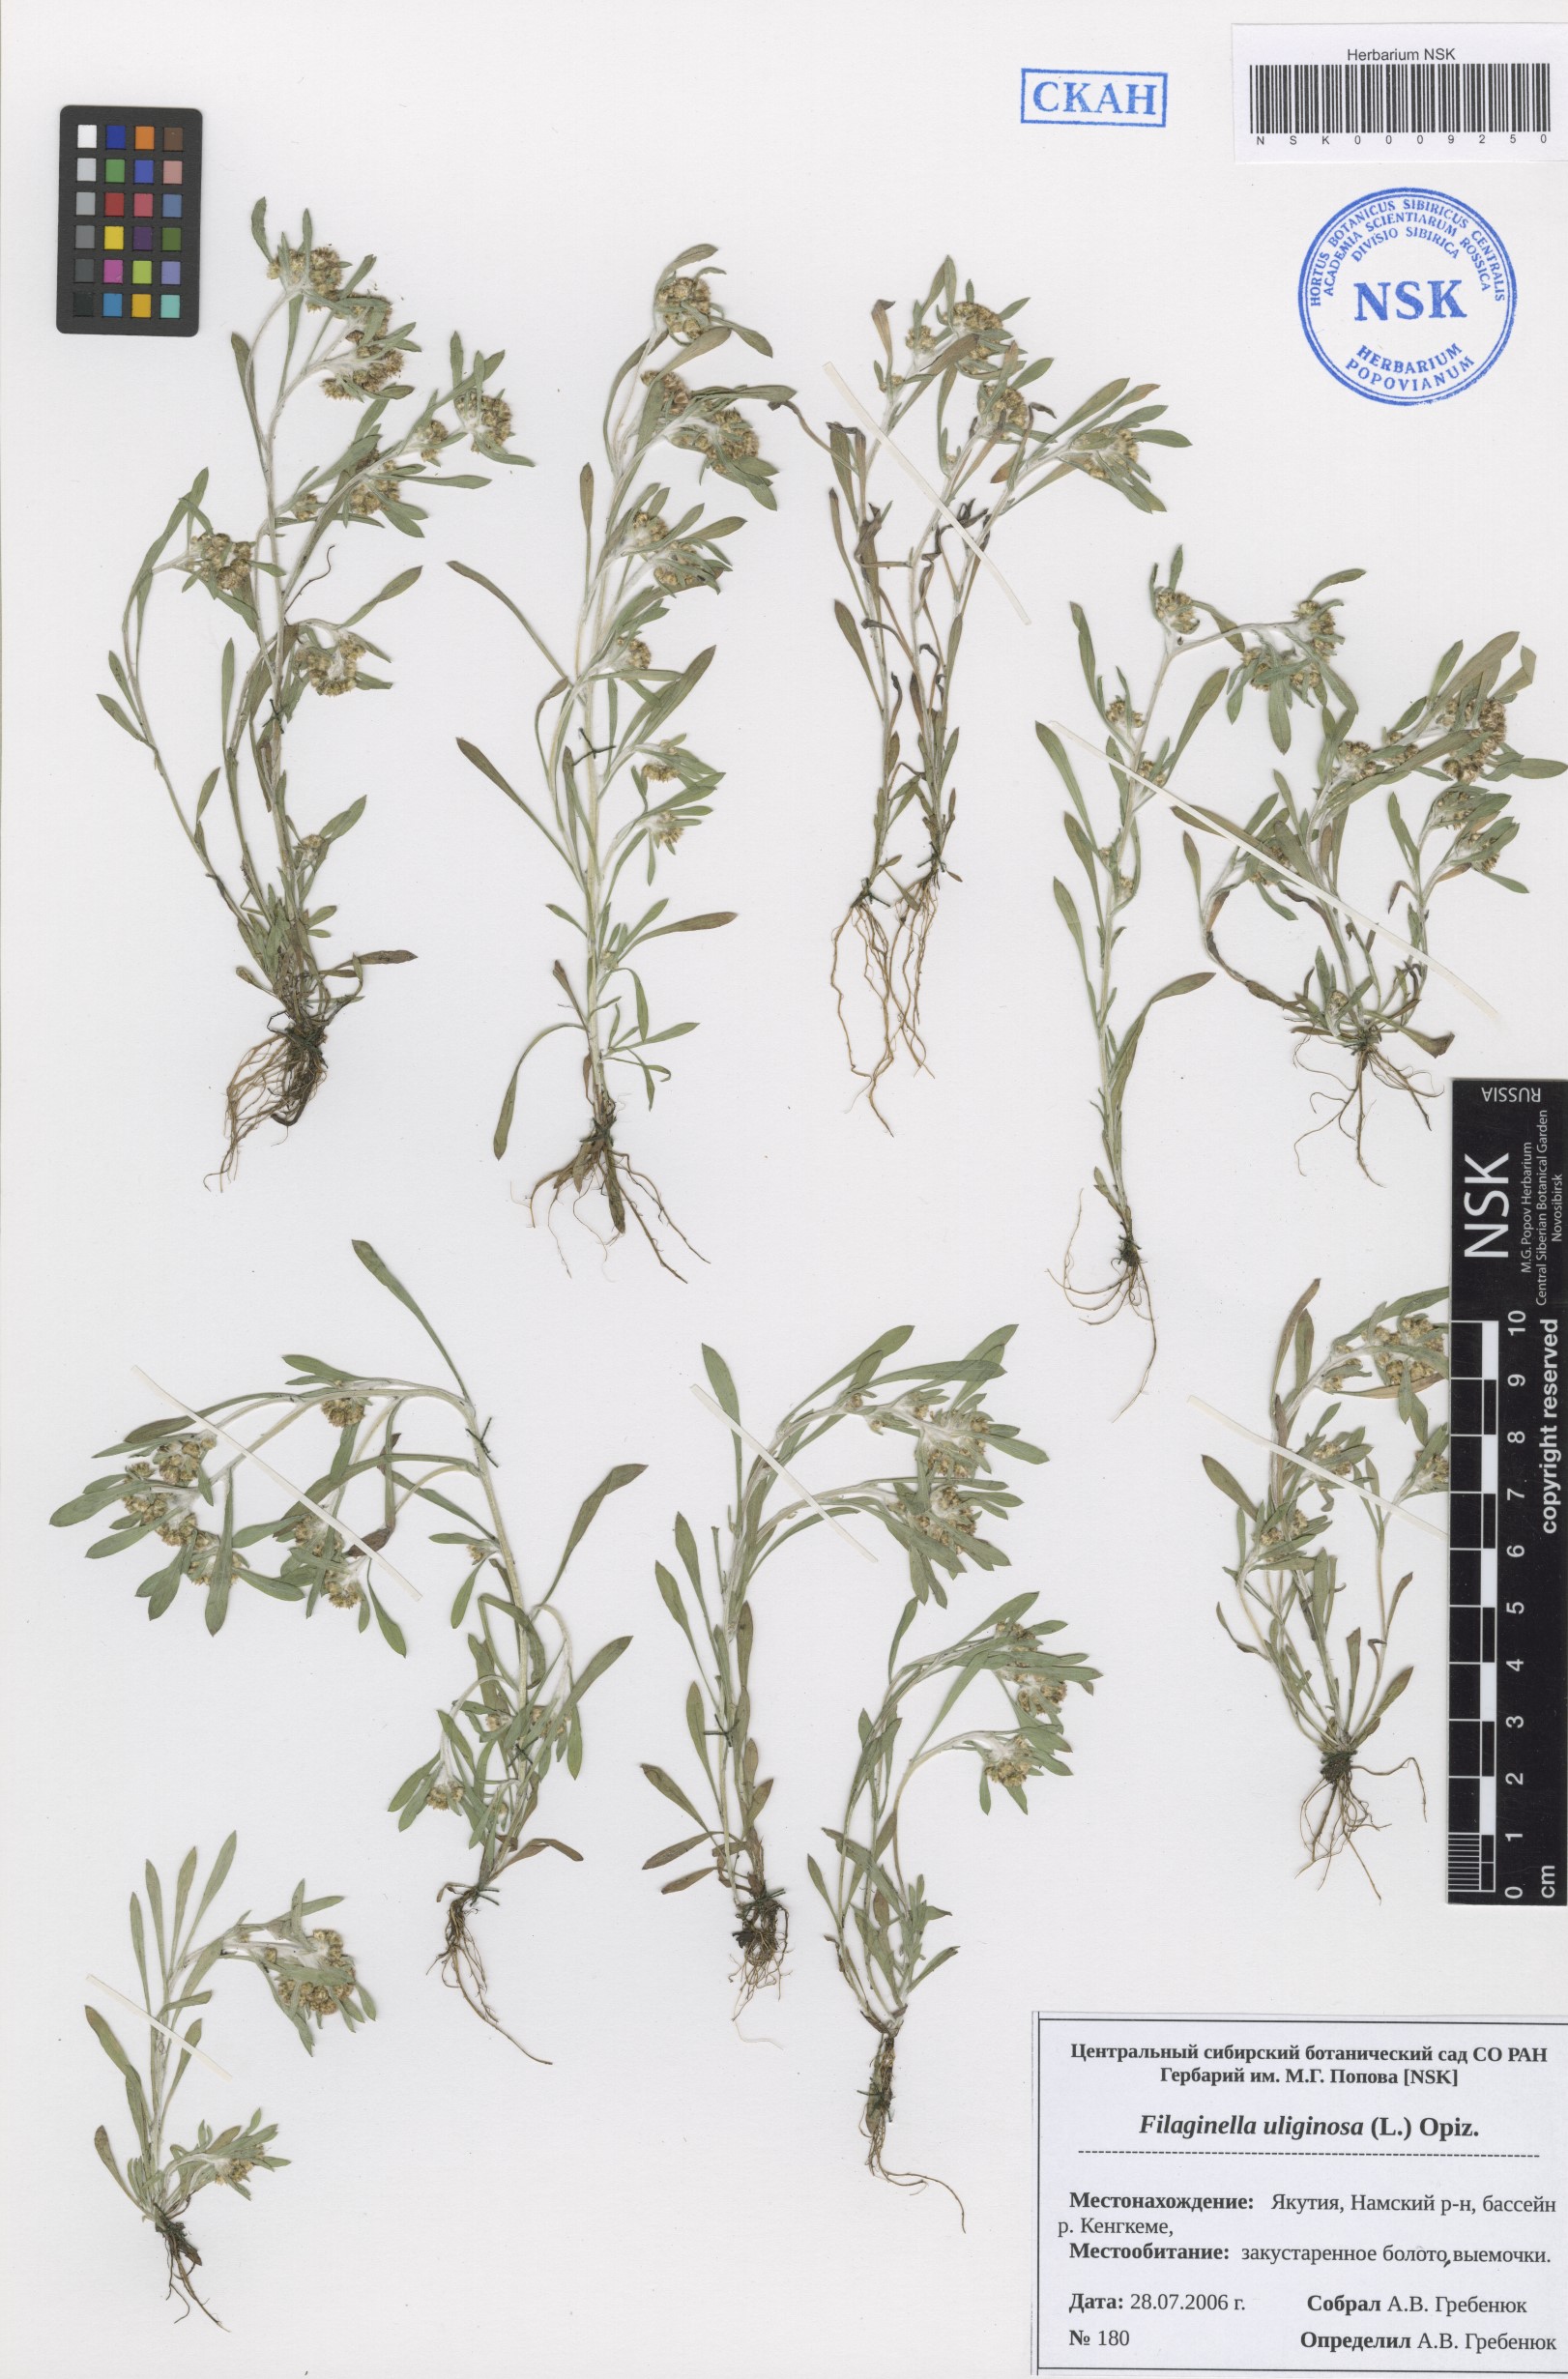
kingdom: Plantae
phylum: Tracheophyta
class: Magnoliopsida
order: Asterales
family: Asteraceae
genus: Gnaphalium
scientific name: Gnaphalium uliginosum
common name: Marsh cudweed
